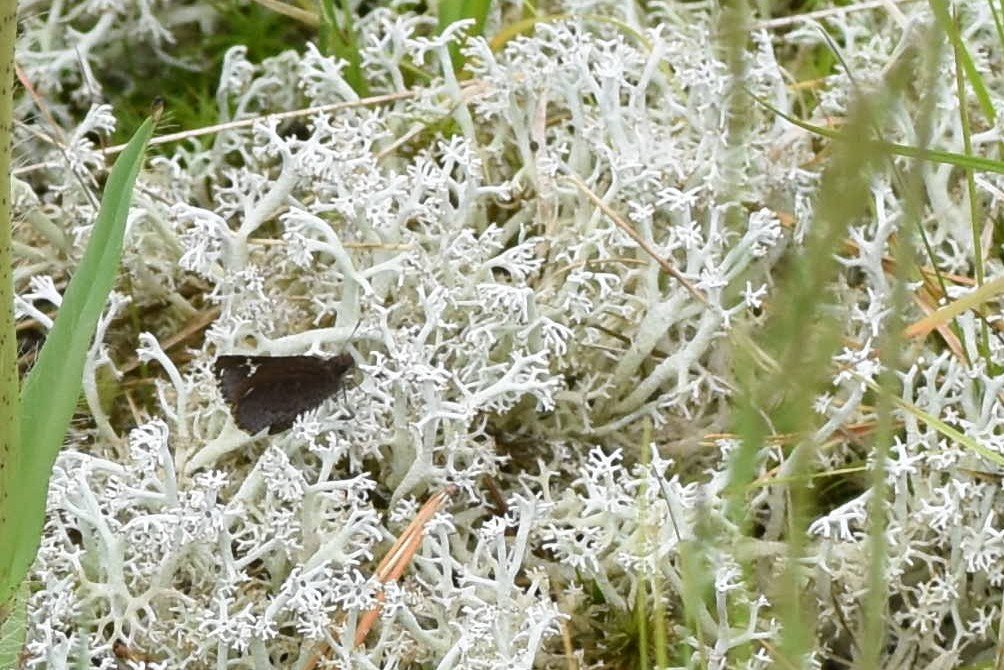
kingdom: Animalia
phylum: Arthropoda
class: Insecta
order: Lepidoptera
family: Hesperiidae
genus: Mastor
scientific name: Mastor vialis
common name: Common Roadside-Skipper
